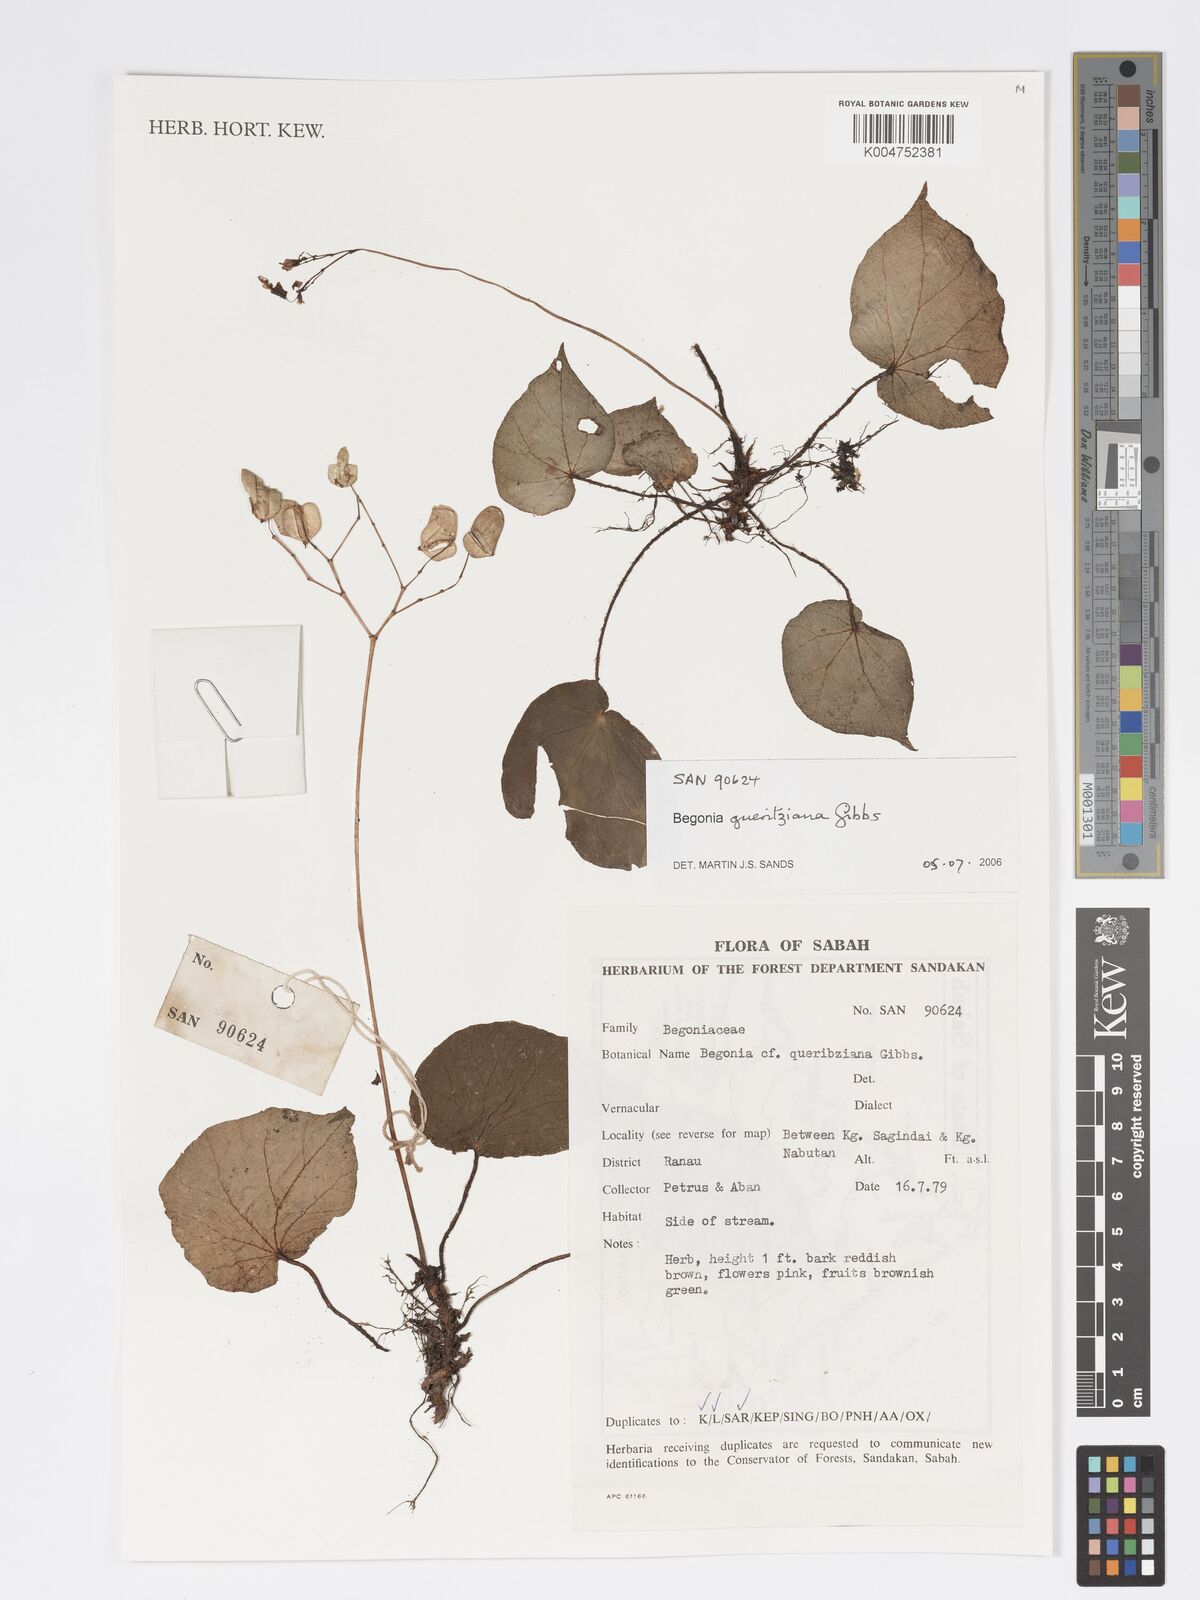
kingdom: Plantae
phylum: Tracheophyta
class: Magnoliopsida
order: Cucurbitales
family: Begoniaceae
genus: Begonia
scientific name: Begonia gueritziana
